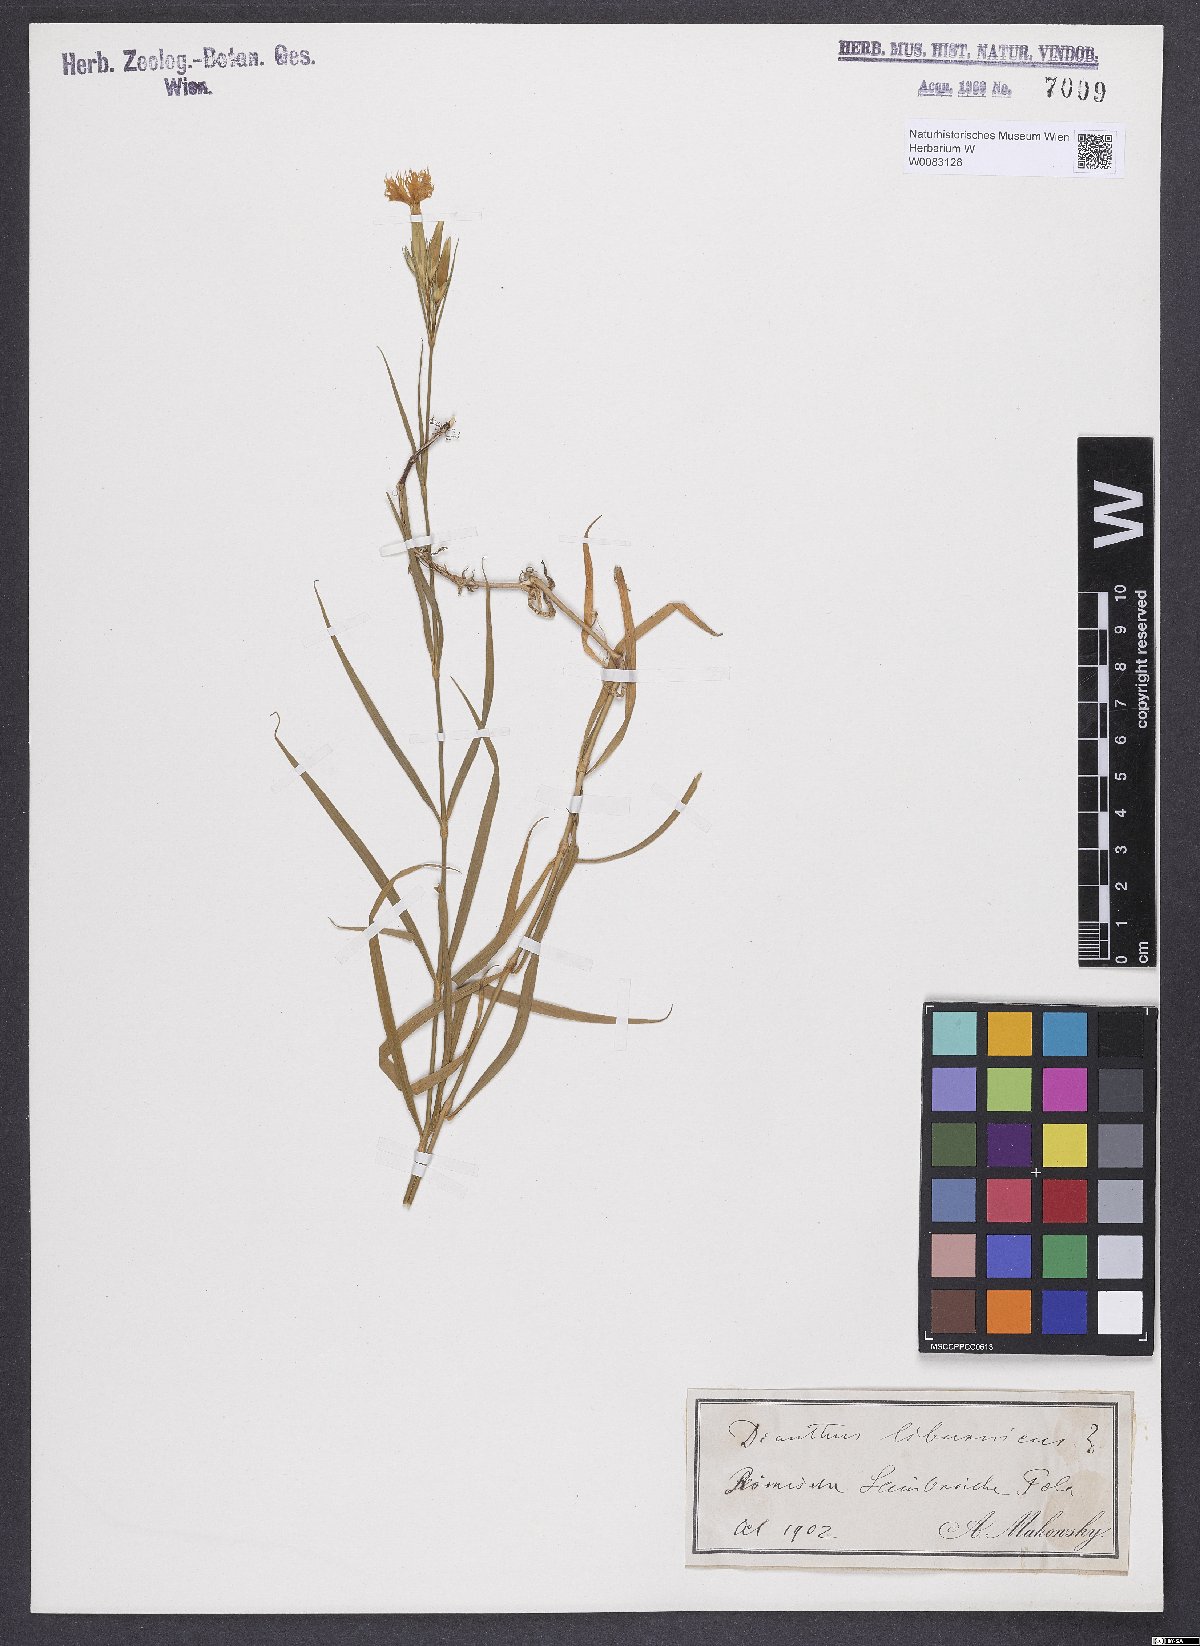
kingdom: Plantae
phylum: Tracheophyta
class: Magnoliopsida
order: Caryophyllales
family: Caryophyllaceae
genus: Dianthus
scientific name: Dianthus balbisii
